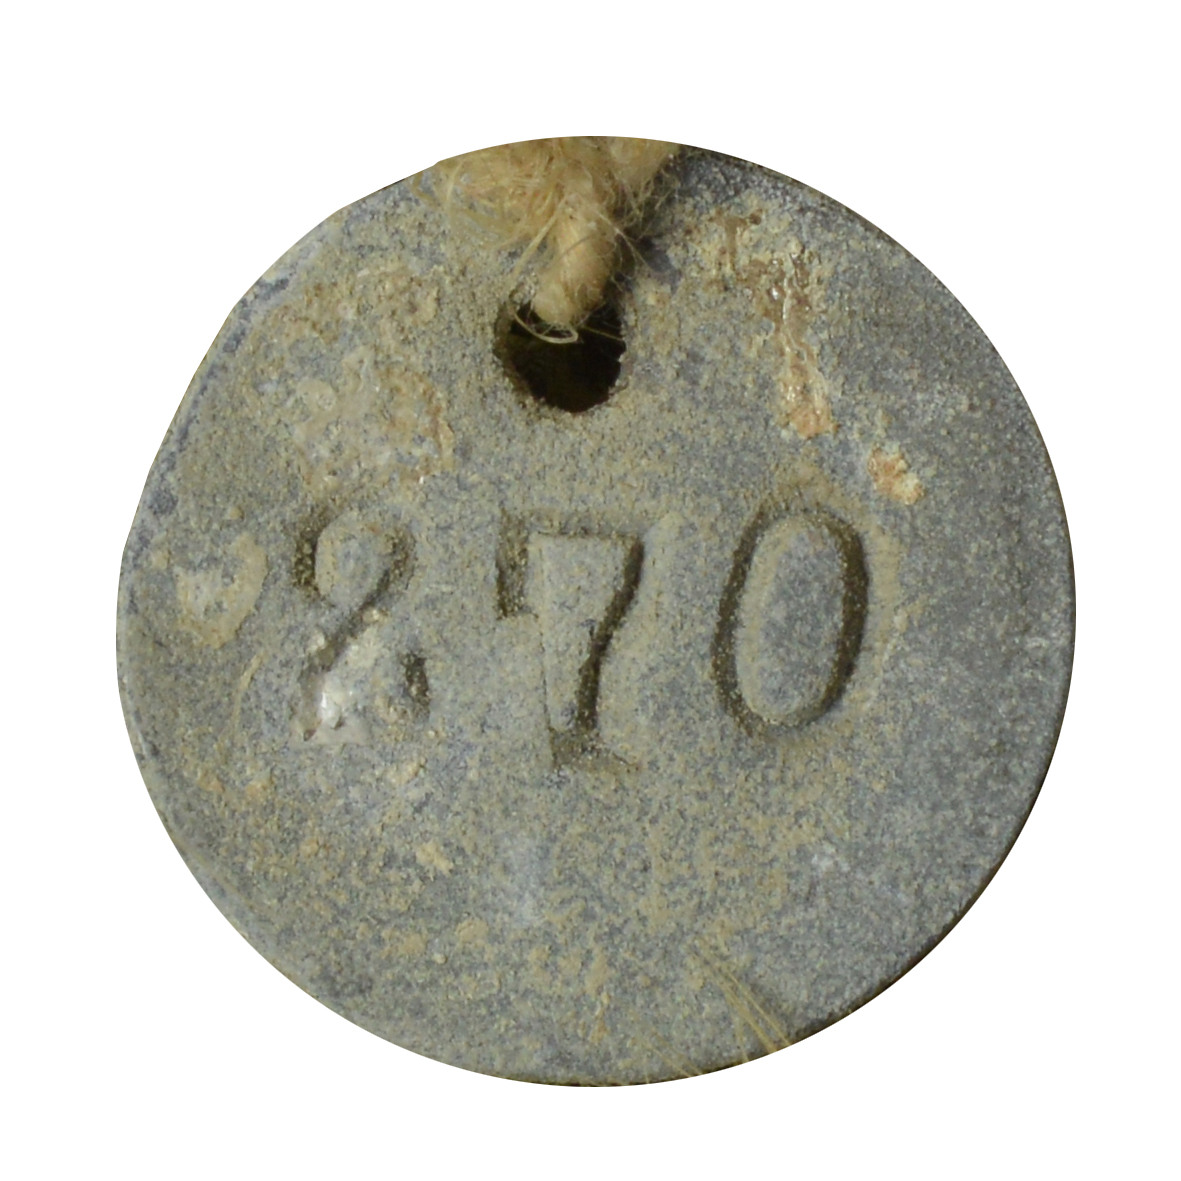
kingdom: Animalia
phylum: Chordata
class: Aves
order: Passeriformes
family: Thraupidae
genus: Nesospiza
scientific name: Nesospiza acunhae
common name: Inaccessible island finch
